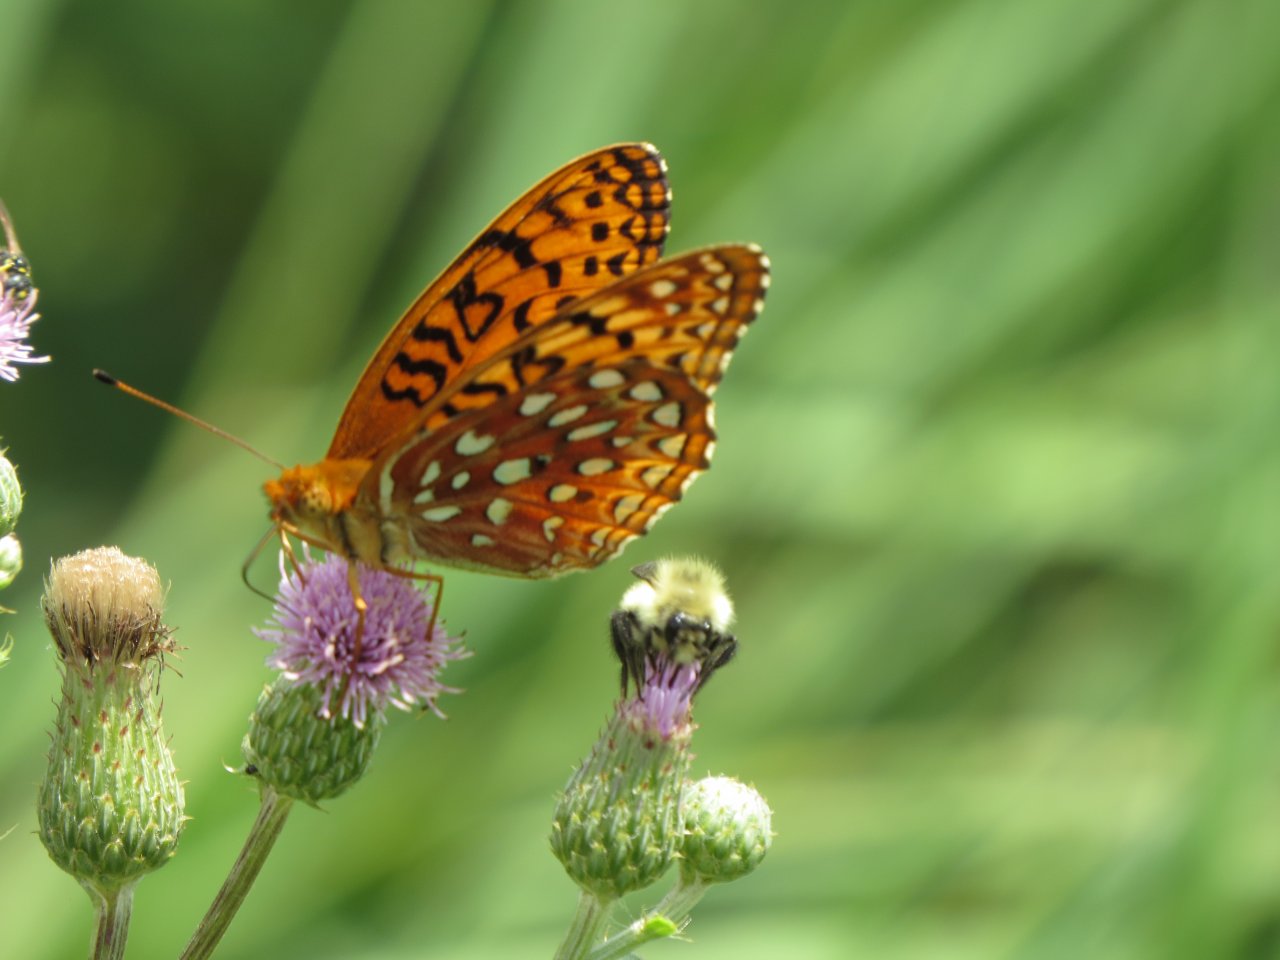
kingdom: Animalia
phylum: Arthropoda
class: Insecta
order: Lepidoptera
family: Nymphalidae
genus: Speyeria
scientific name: Speyeria aphrodite
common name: Aphrodite Fritillary
